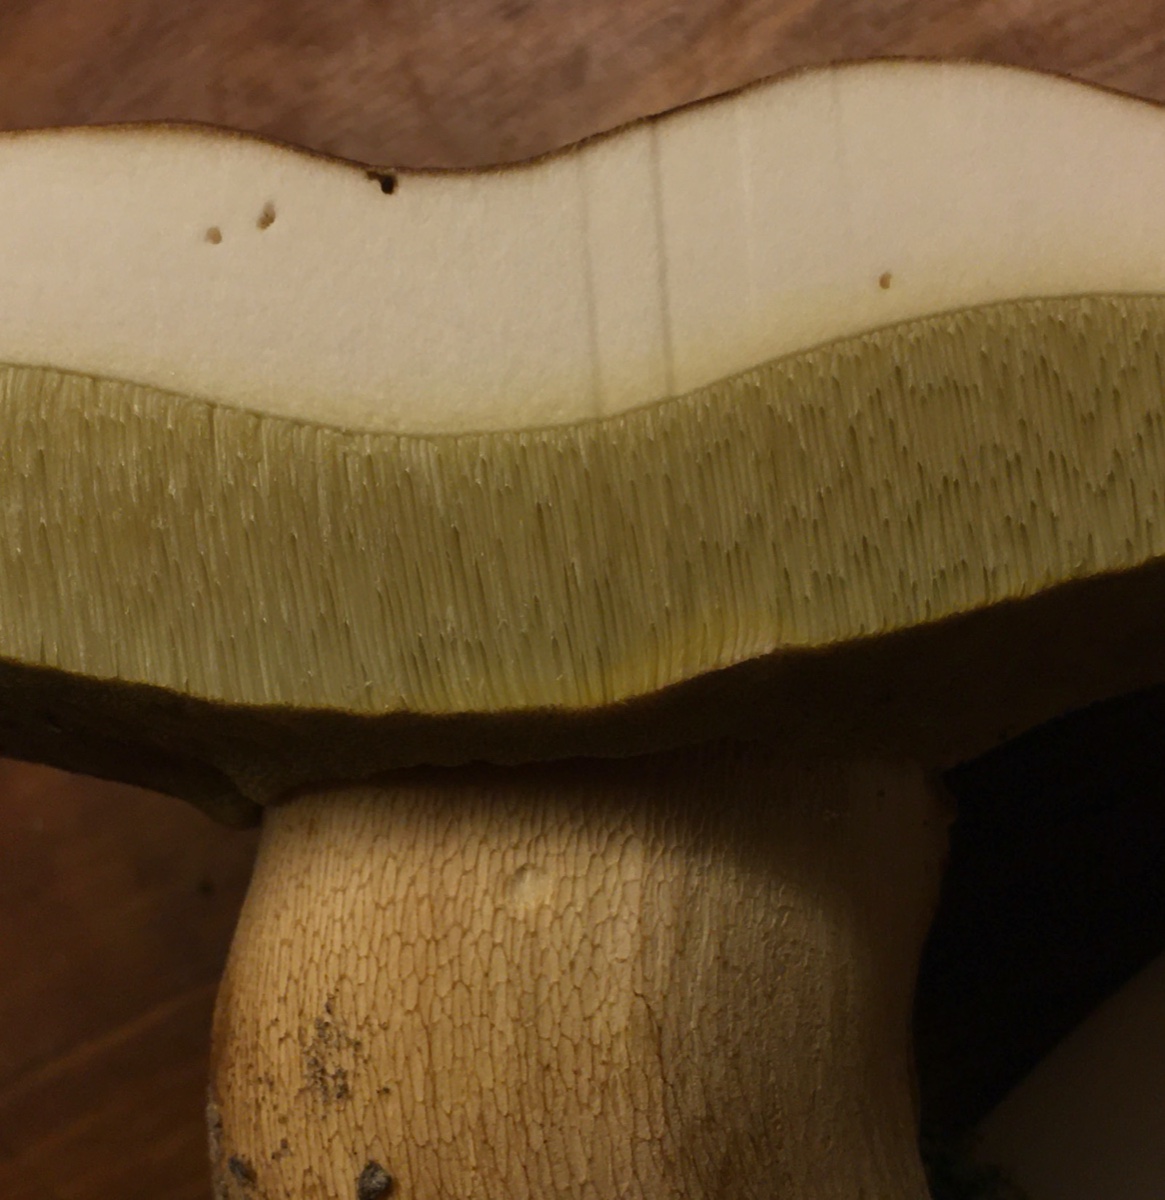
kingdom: Fungi
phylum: Basidiomycota
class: Agaricomycetes
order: Boletales
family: Boletaceae
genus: Boletus
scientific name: Boletus edulis
